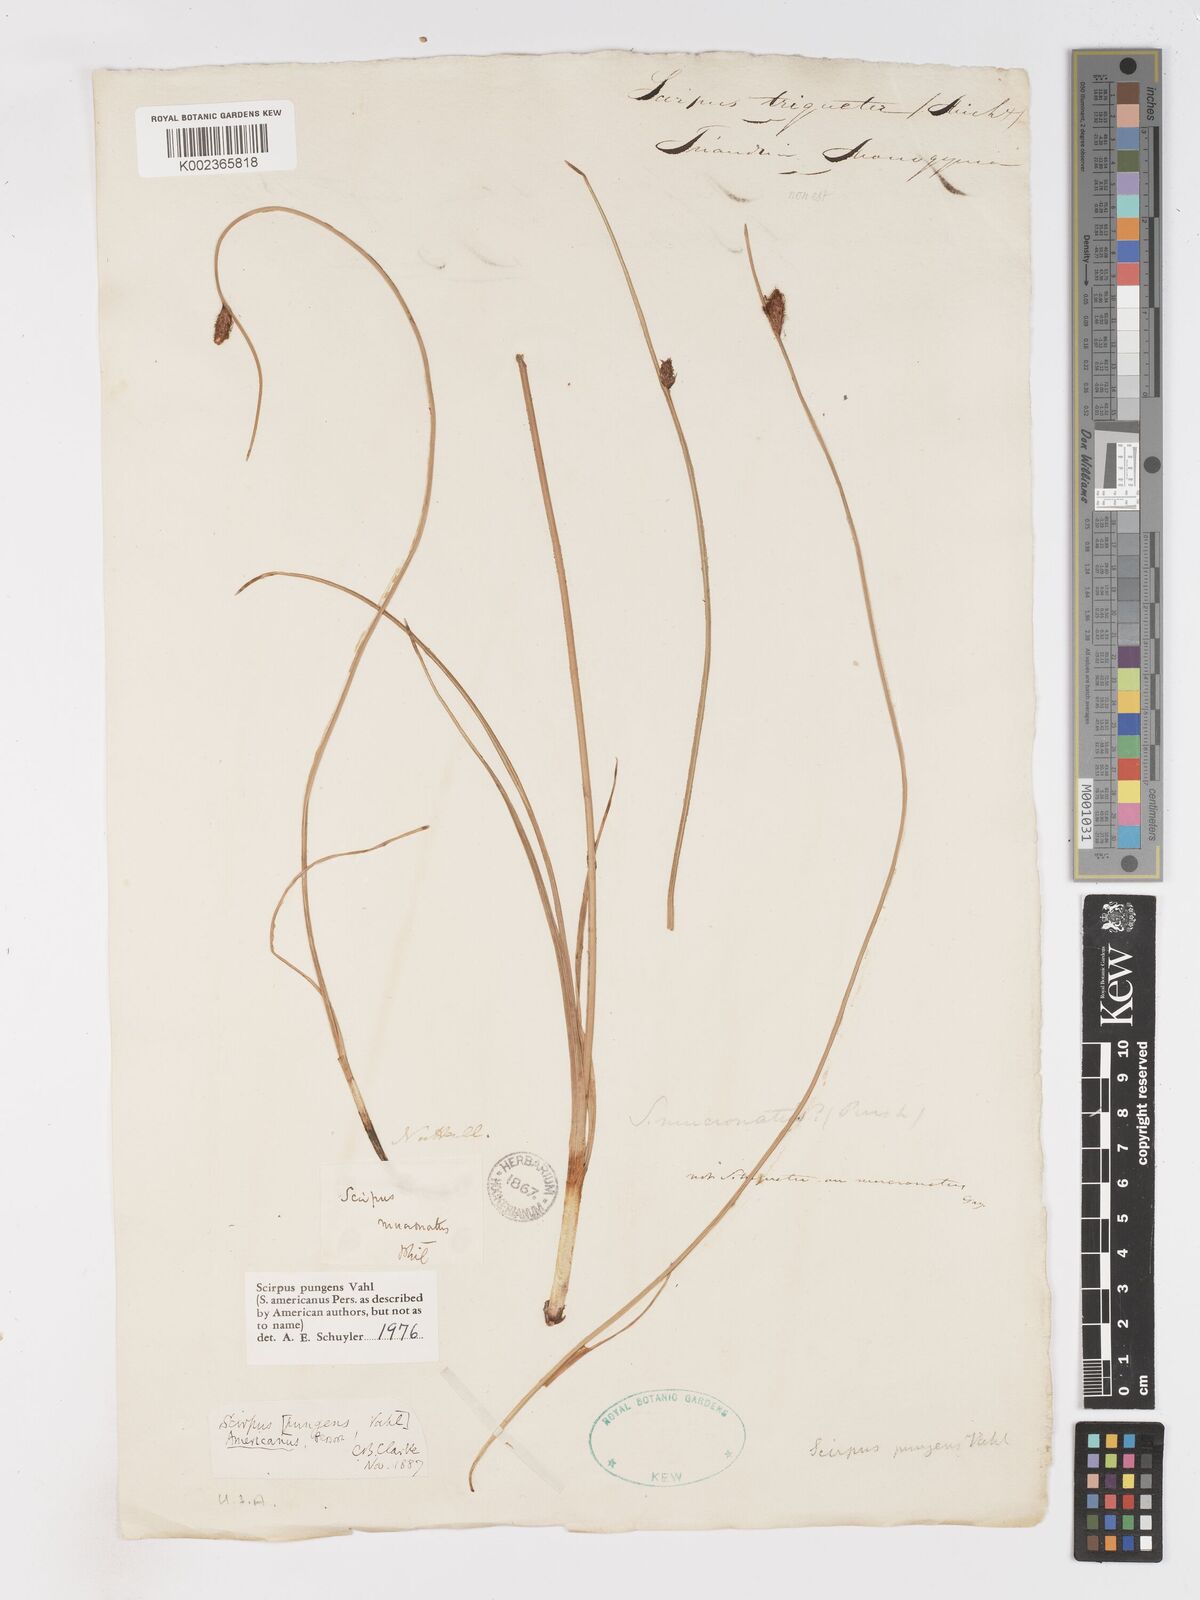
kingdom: Plantae
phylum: Tracheophyta
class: Liliopsida
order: Poales
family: Cyperaceae
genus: Schoenoplectus
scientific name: Schoenoplectus pungens
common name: Sharp club-rush
